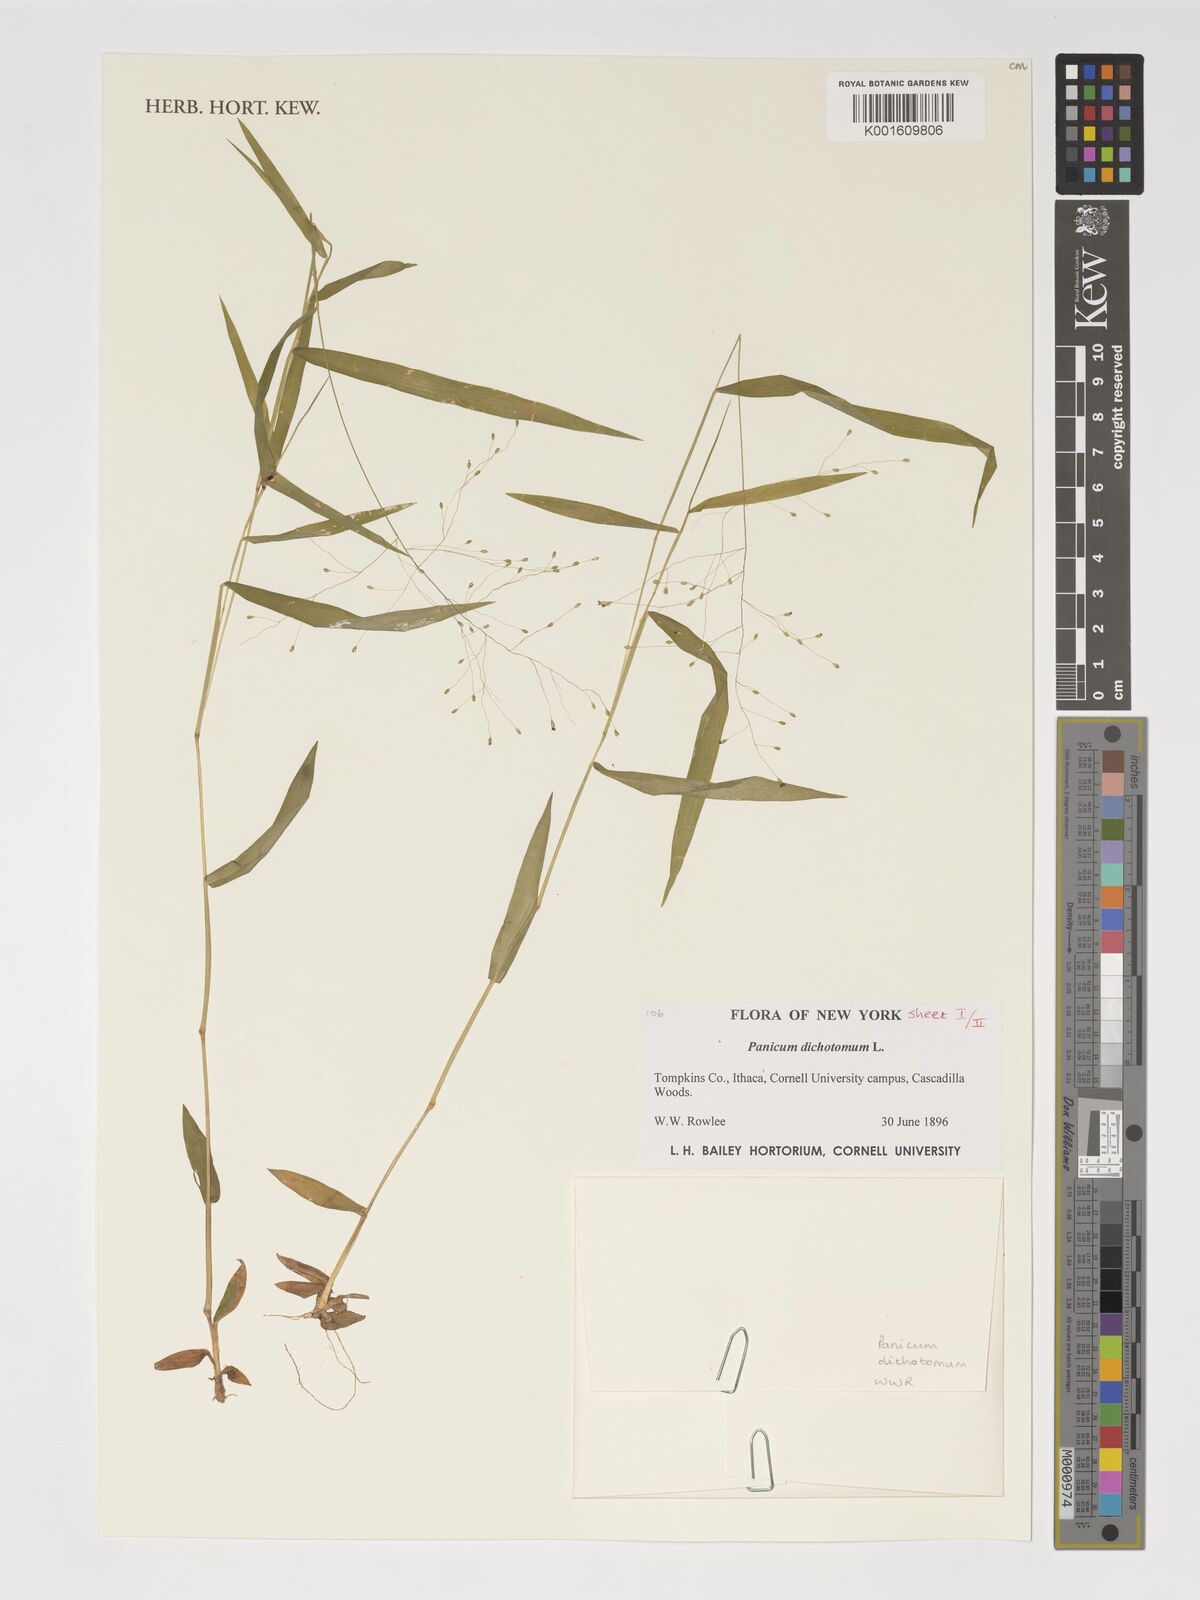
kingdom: Plantae
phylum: Tracheophyta
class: Liliopsida
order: Poales
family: Poaceae
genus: Dichanthelium
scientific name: Dichanthelium dichotomum
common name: Cypress panicgrass
